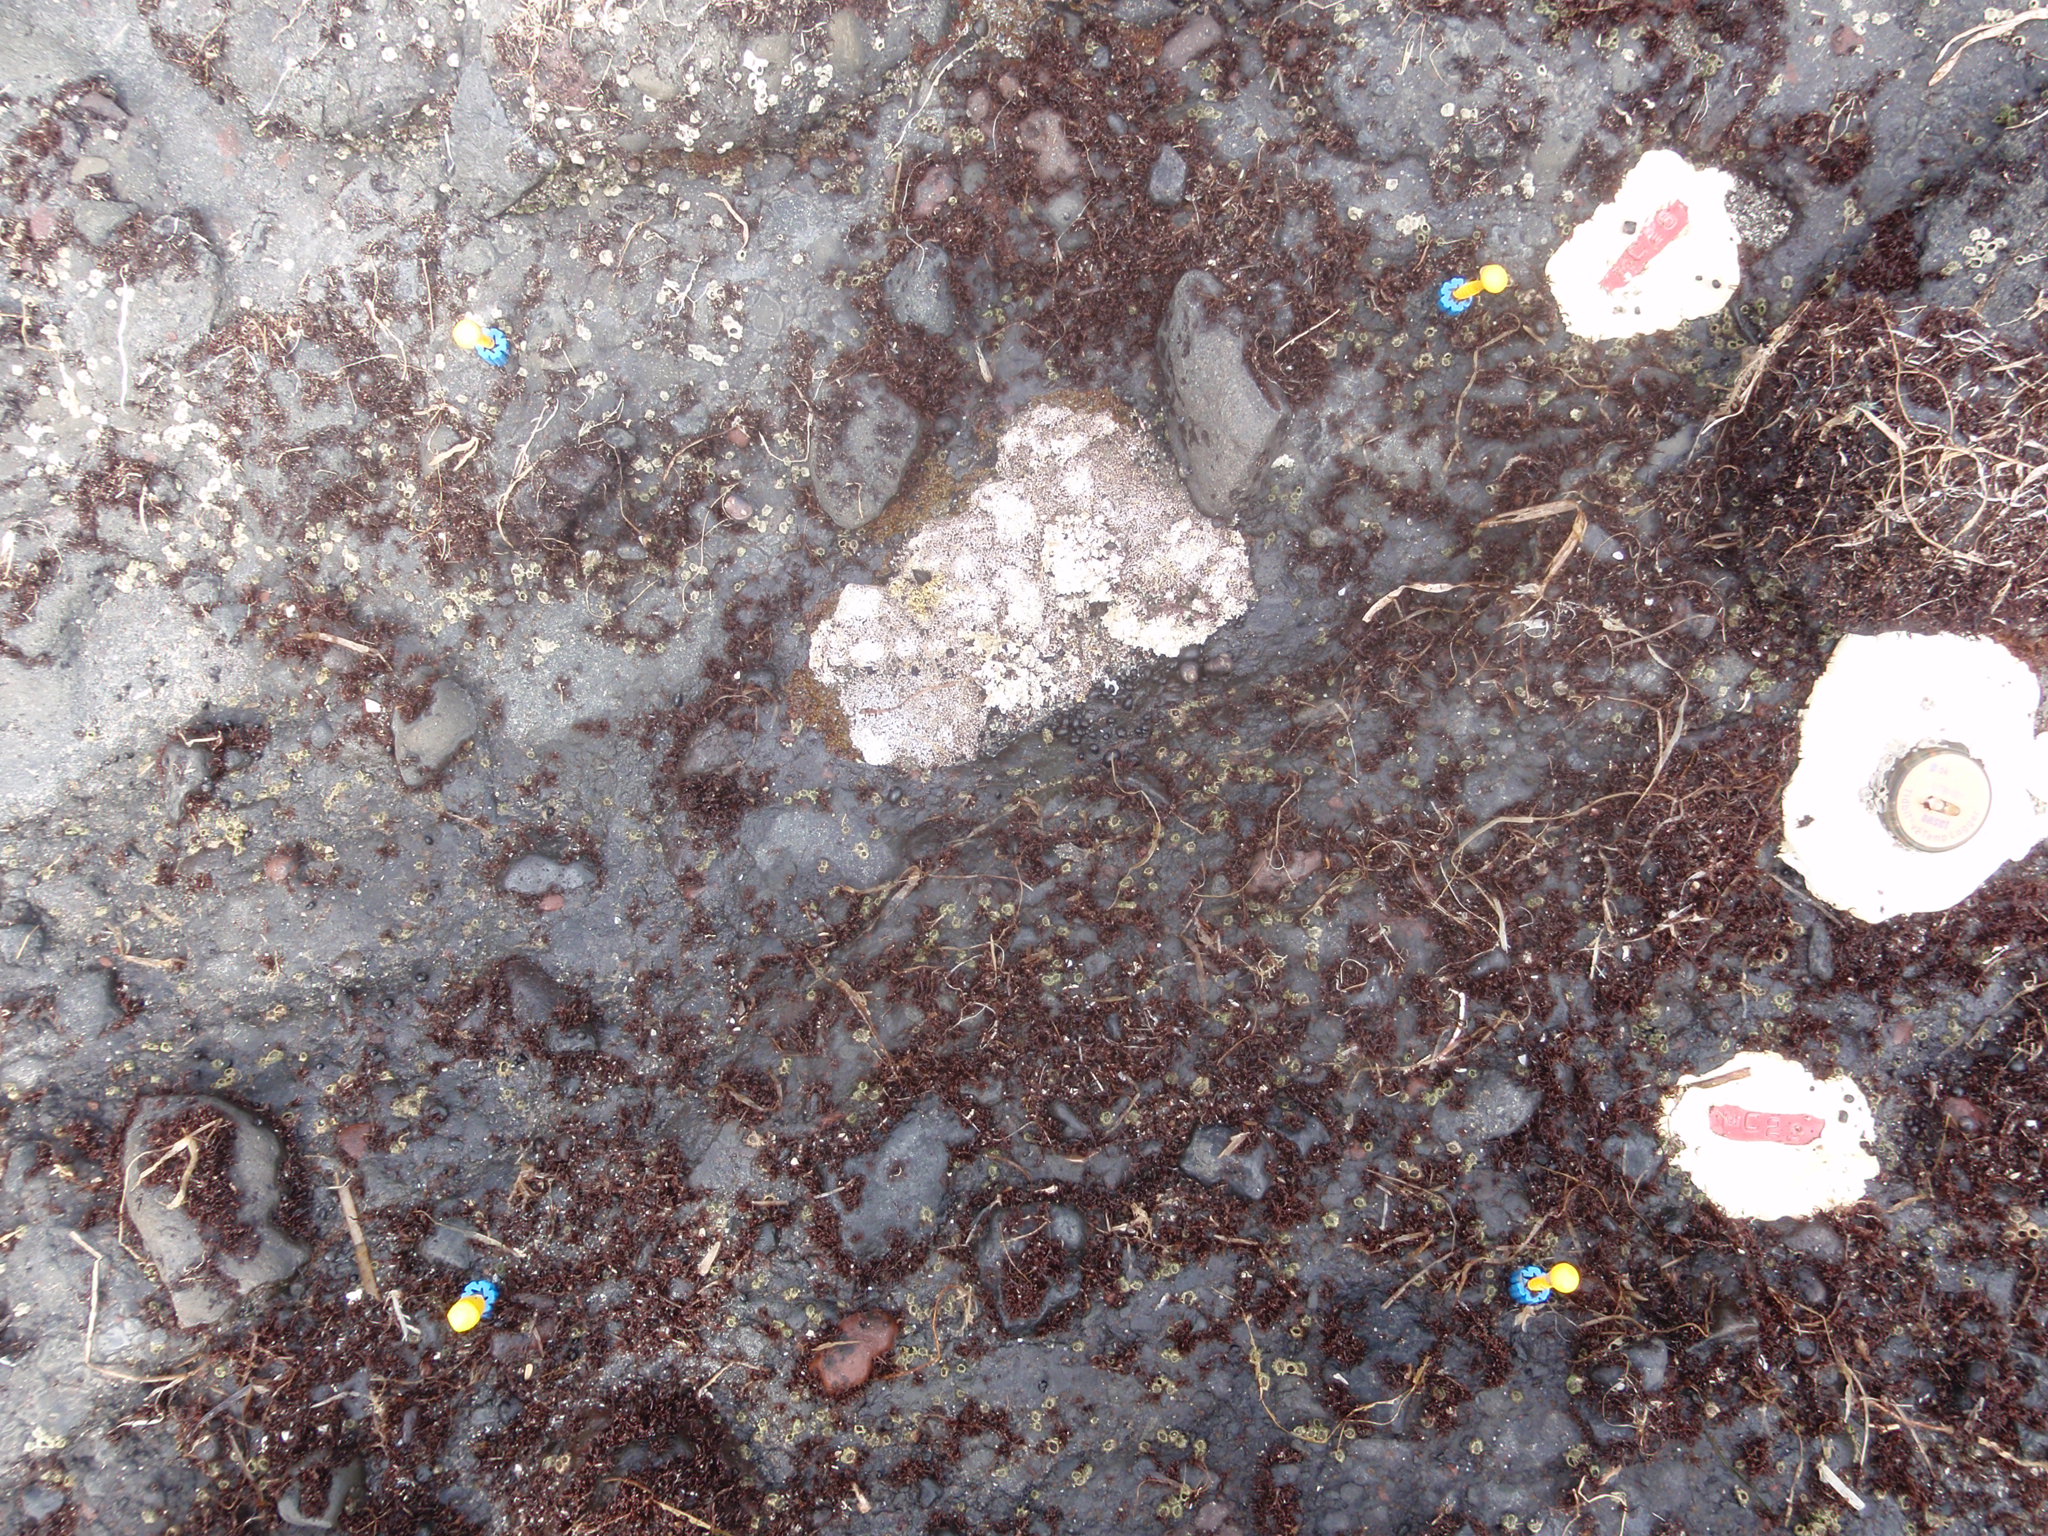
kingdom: Animalia
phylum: Arthropoda
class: Maxillopoda
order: Sessilia
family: Chthamalidae
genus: Chthamalus
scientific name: Chthamalus dalli
